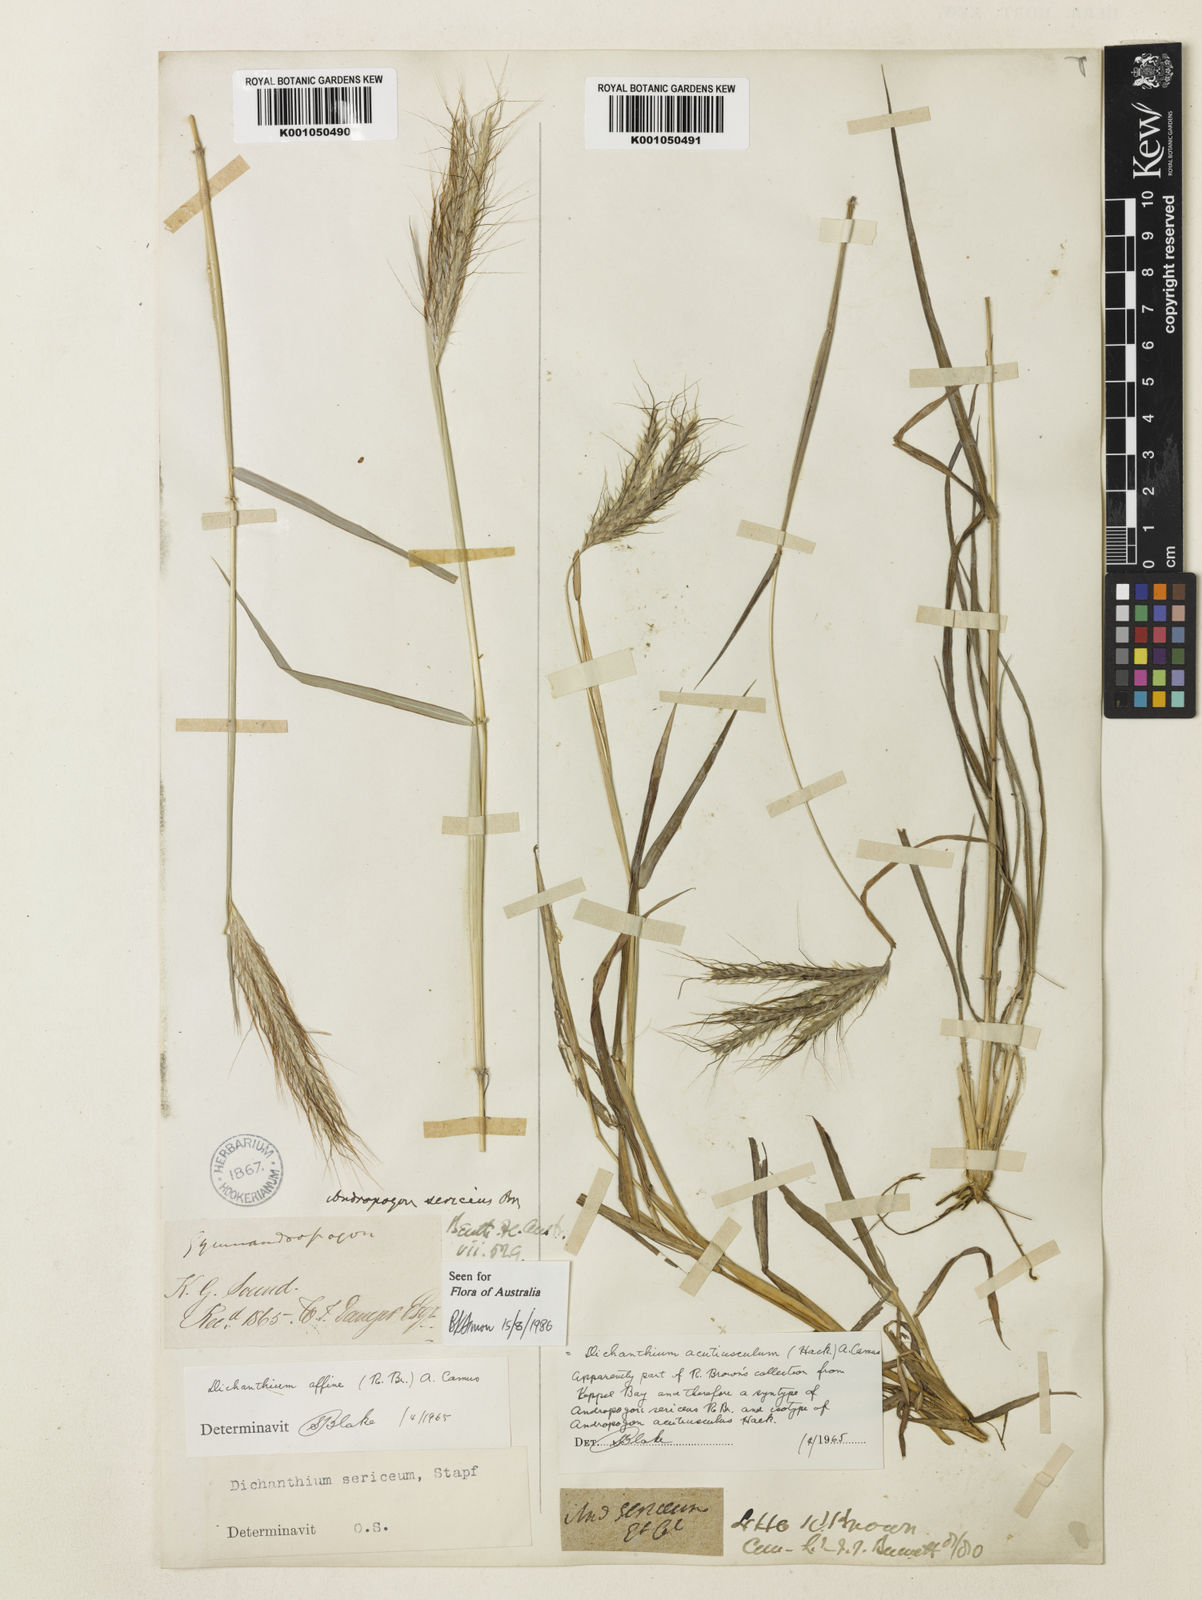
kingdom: Plantae
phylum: Tracheophyta
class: Liliopsida
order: Poales
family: Poaceae
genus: Dichanthium
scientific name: Dichanthium sericeum
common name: Silky bluestem
